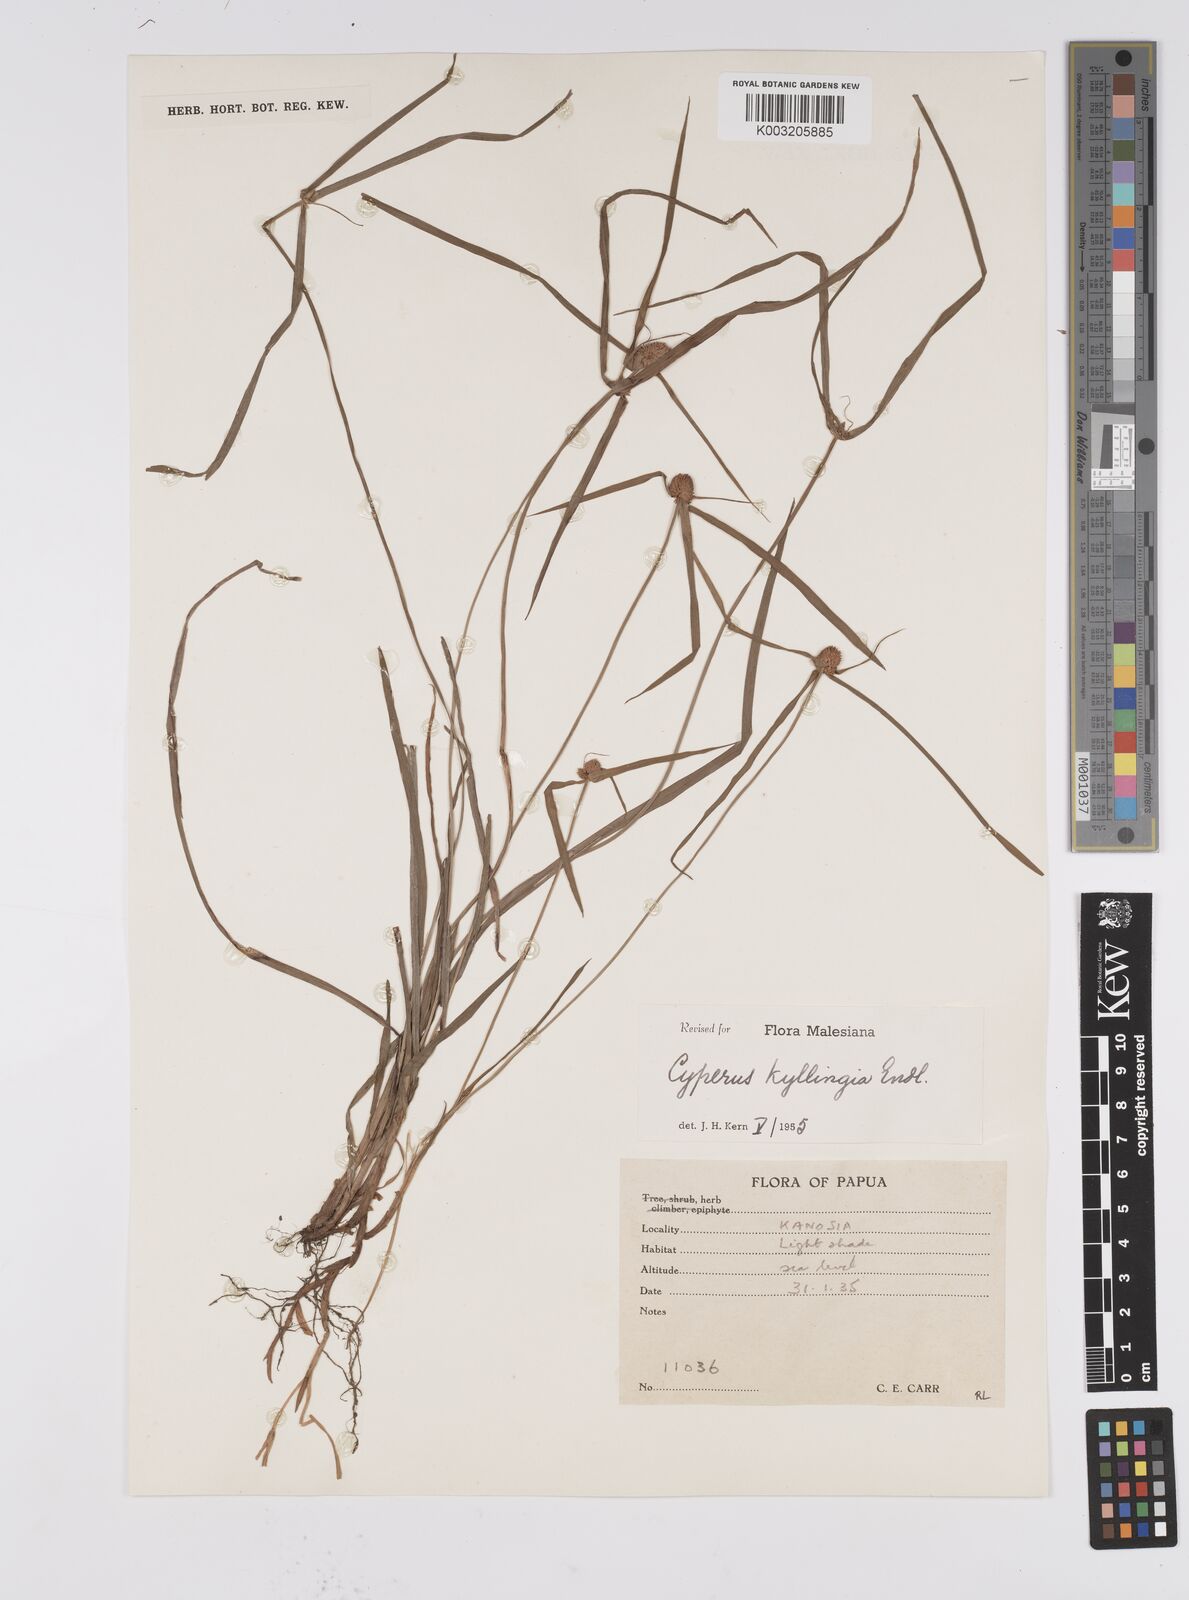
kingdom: Plantae
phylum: Tracheophyta
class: Liliopsida
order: Poales
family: Cyperaceae
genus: Cyperus
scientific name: Cyperus nemoralis
